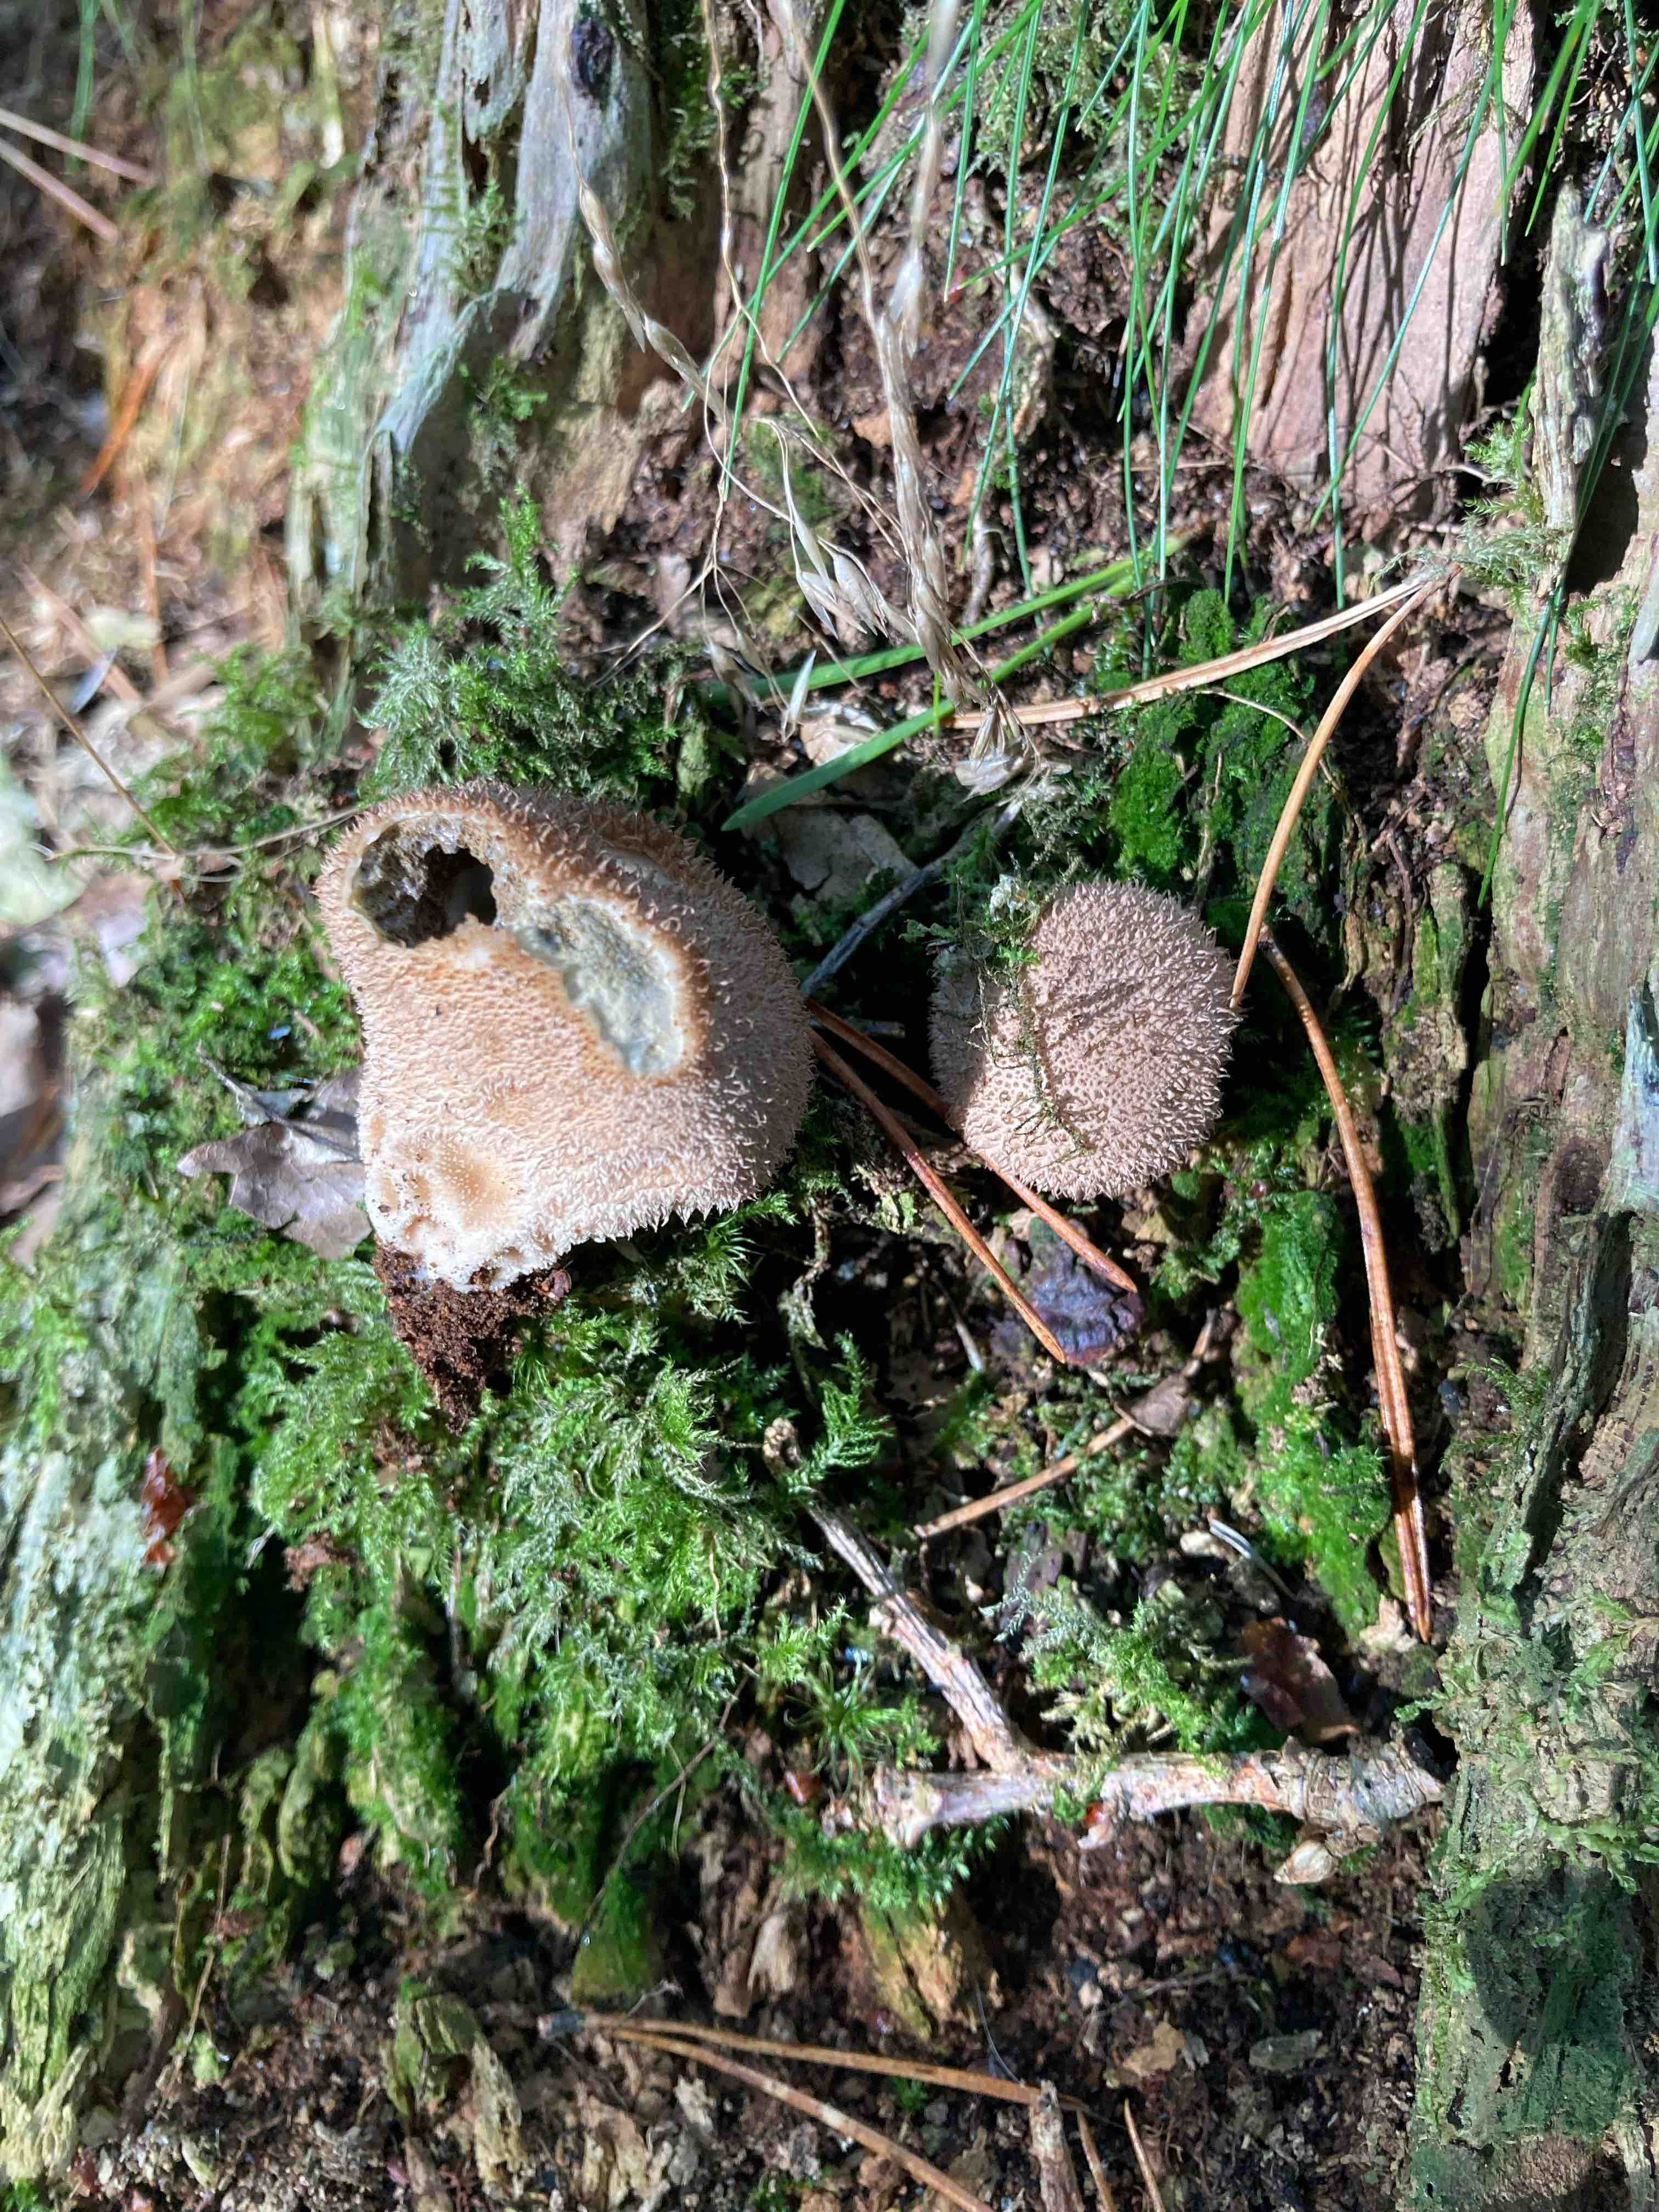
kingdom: Fungi
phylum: Basidiomycota
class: Agaricomycetes
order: Agaricales
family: Lycoperdaceae
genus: Lycoperdon
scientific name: Lycoperdon nigrescens
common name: sortagtig støvbold
